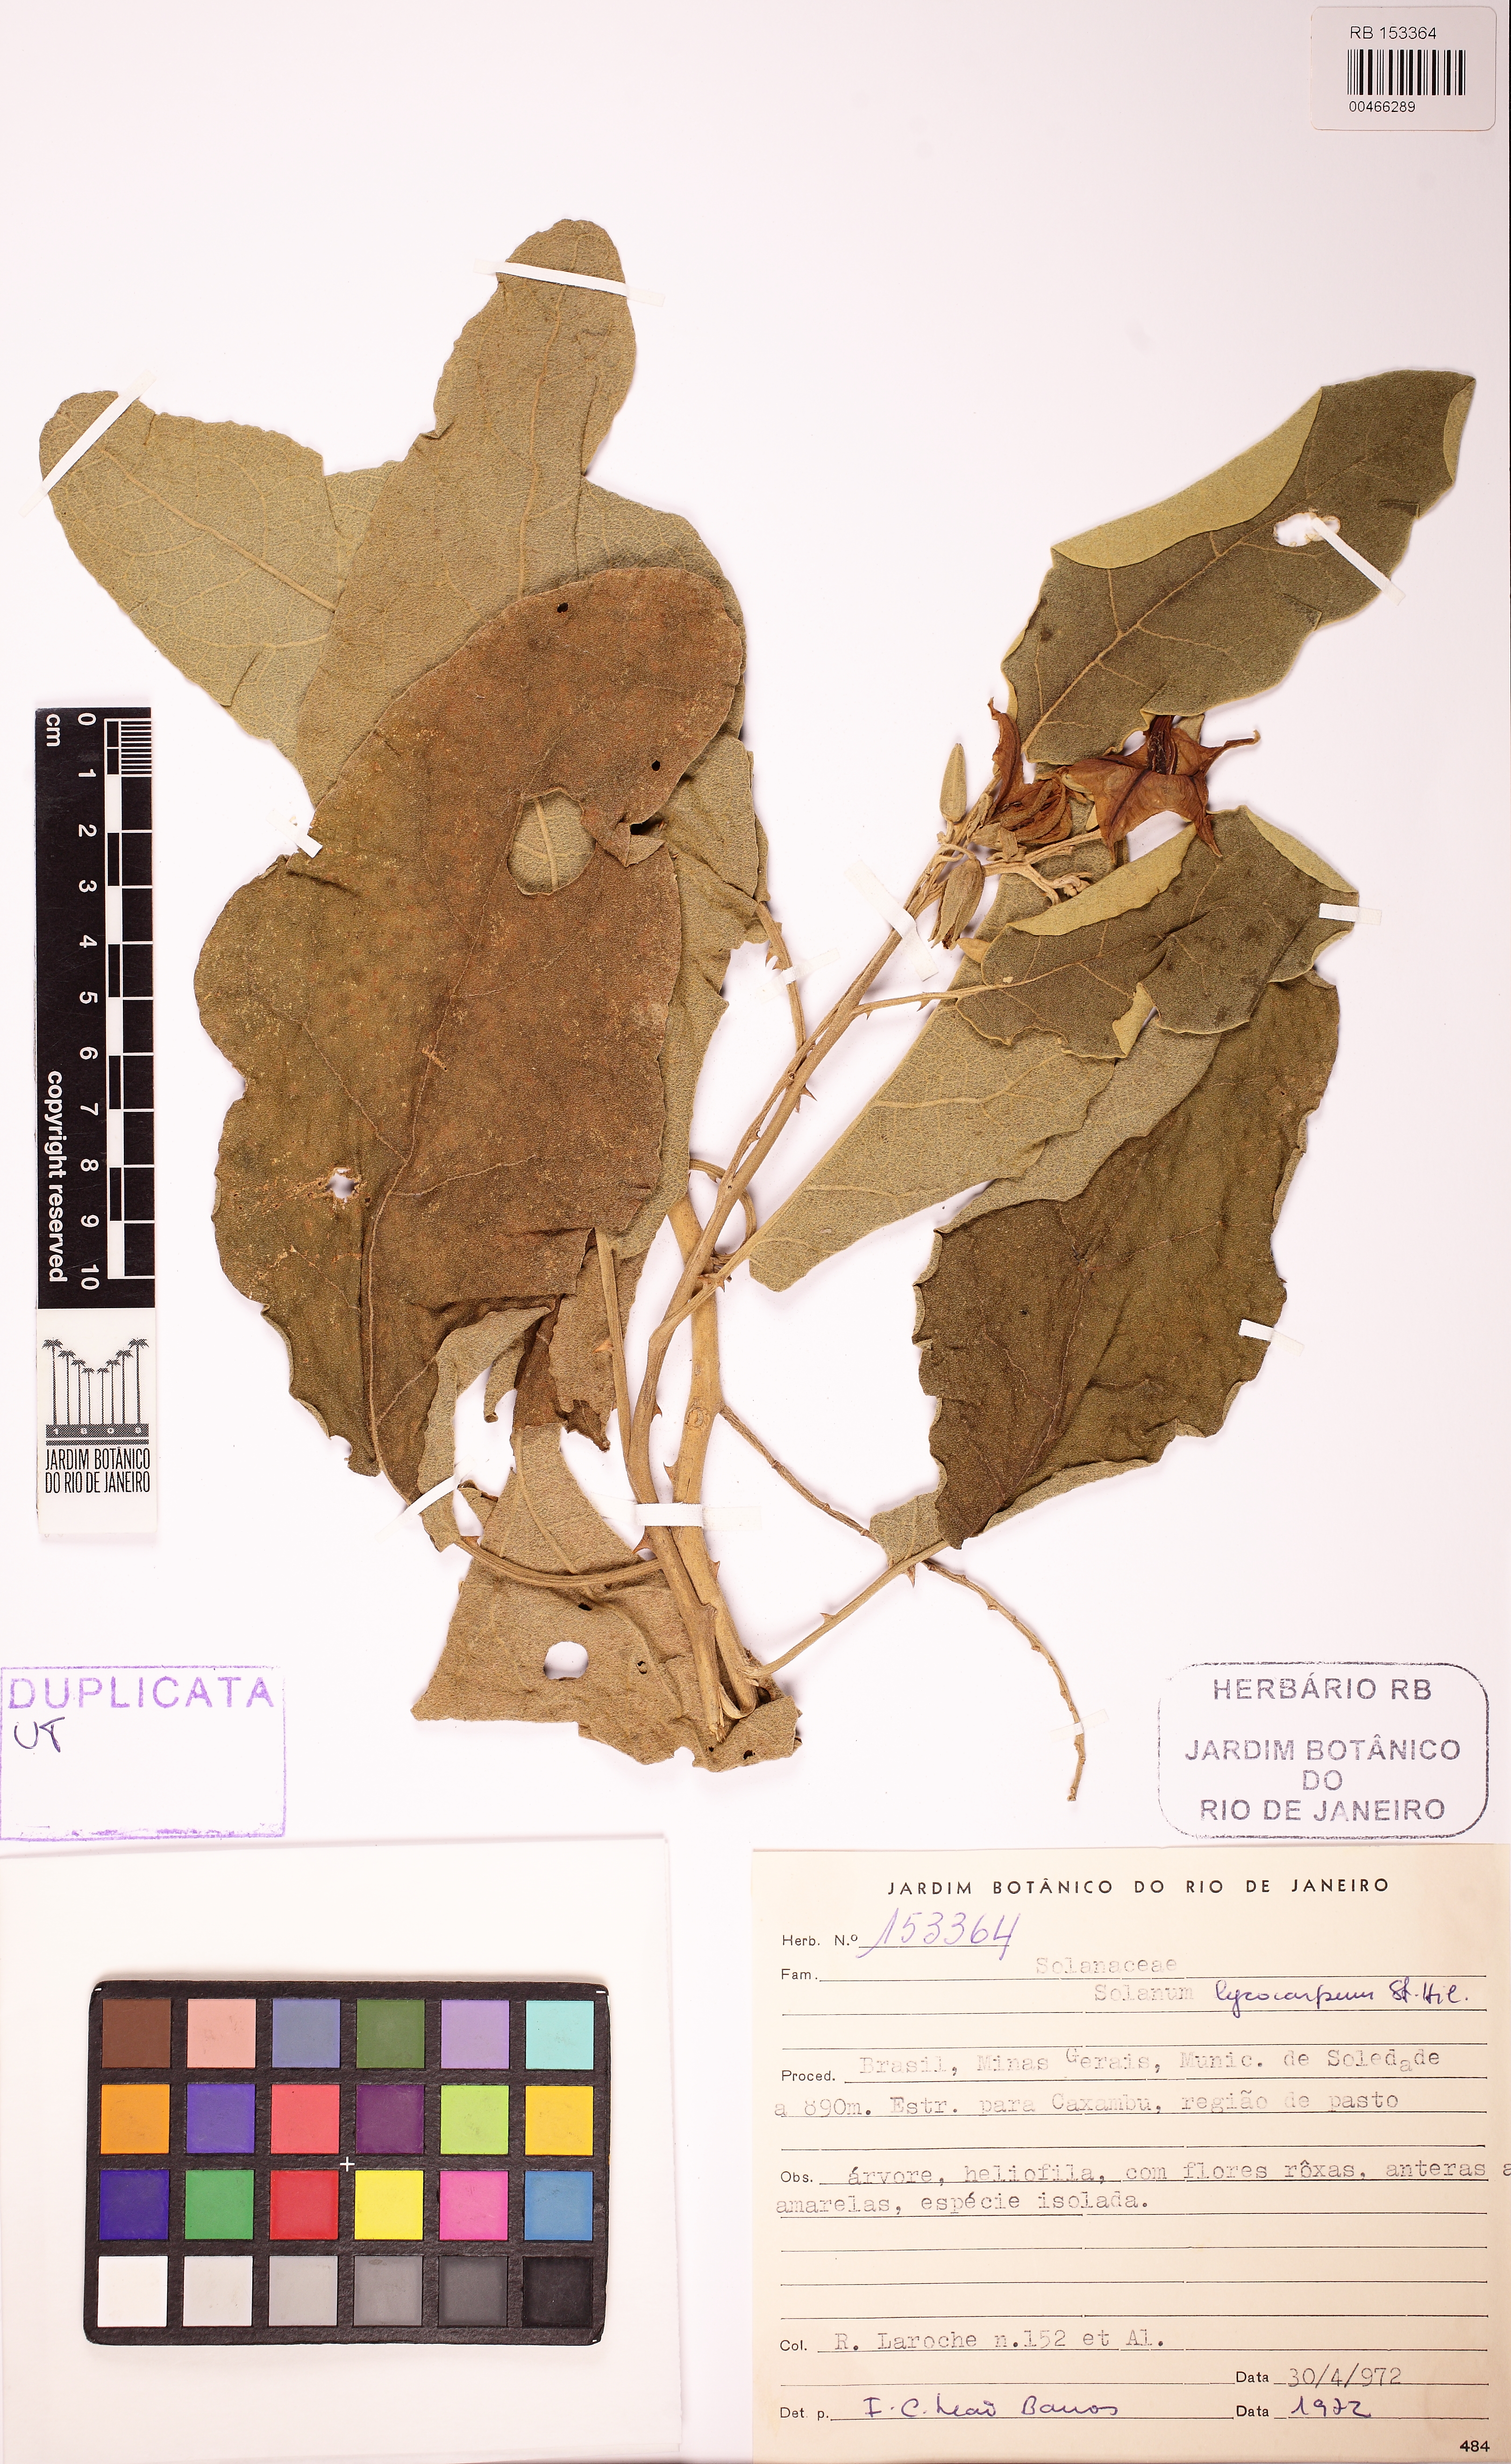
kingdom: Plantae
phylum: Tracheophyta
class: Magnoliopsida
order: Solanales
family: Solanaceae
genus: Solanum
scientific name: Solanum lycocarpum
